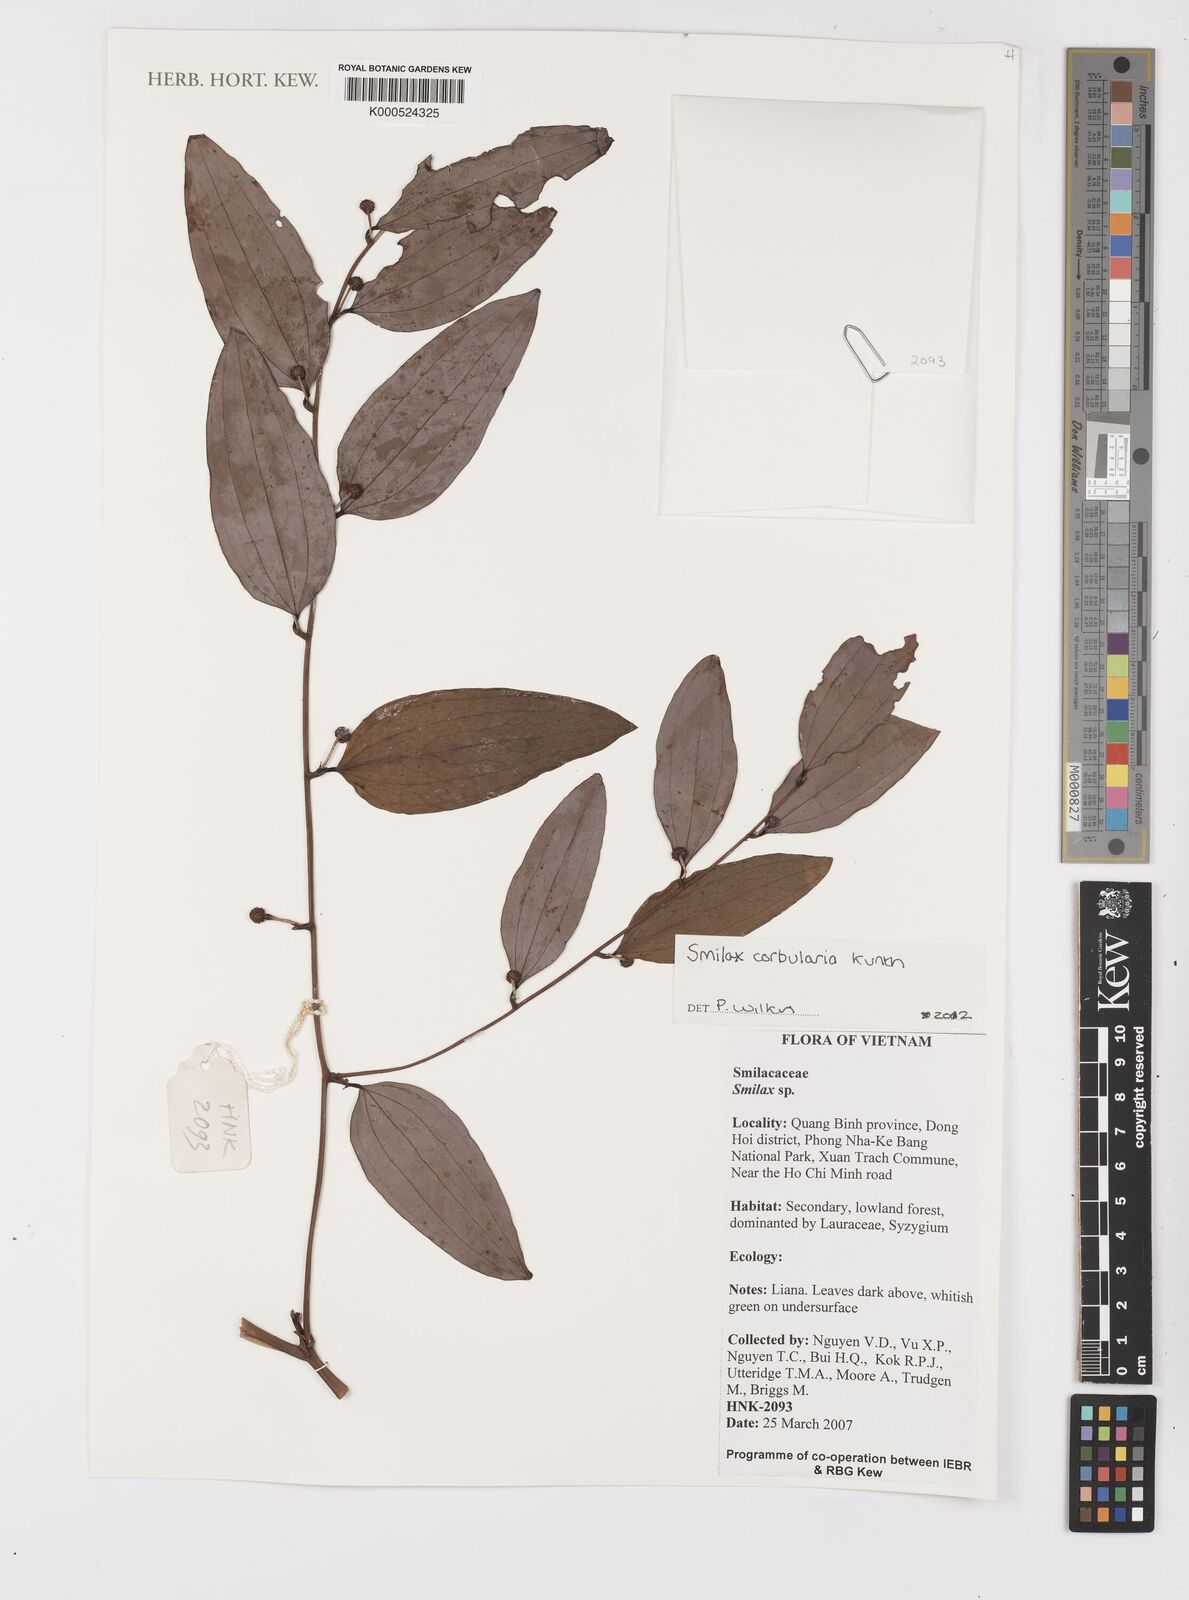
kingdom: Plantae
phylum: Tracheophyta
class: Liliopsida
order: Liliales
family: Smilacaceae
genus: Smilax
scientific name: Smilax corbularia
